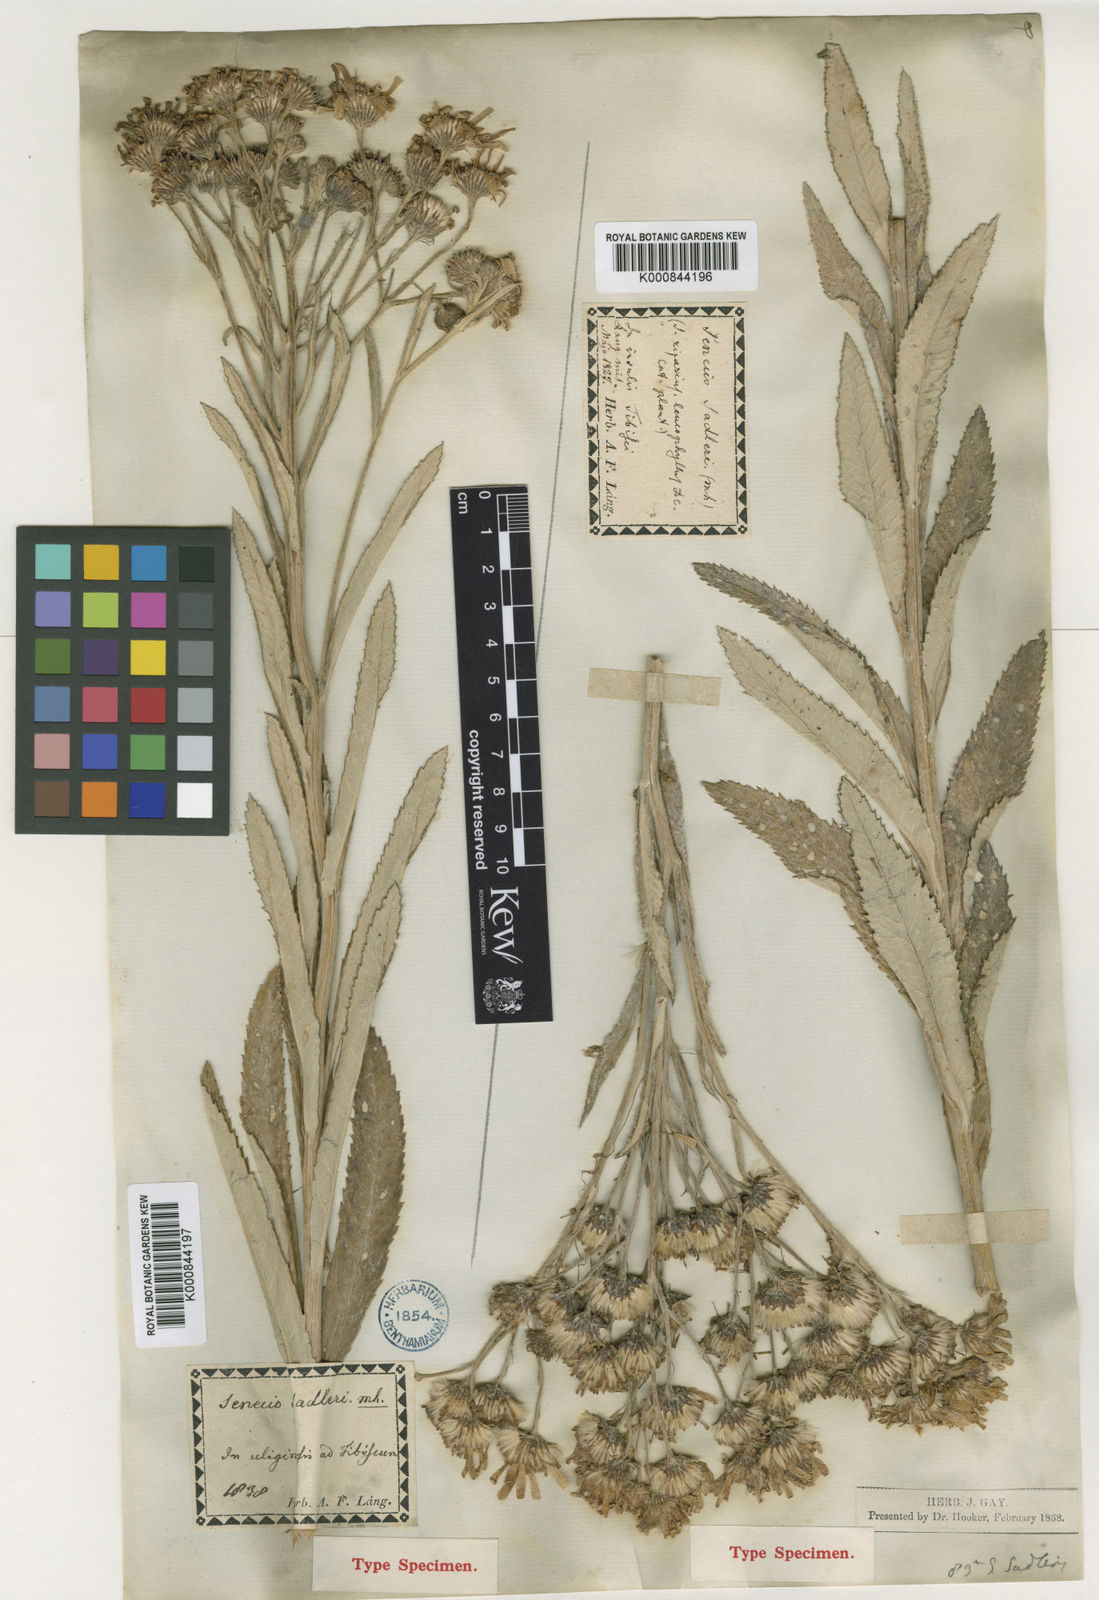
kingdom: Plantae
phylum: Tracheophyta
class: Magnoliopsida
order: Asterales
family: Asteraceae
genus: Jacobaea
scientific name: Jacobaea paludosa
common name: Fen ragwort
